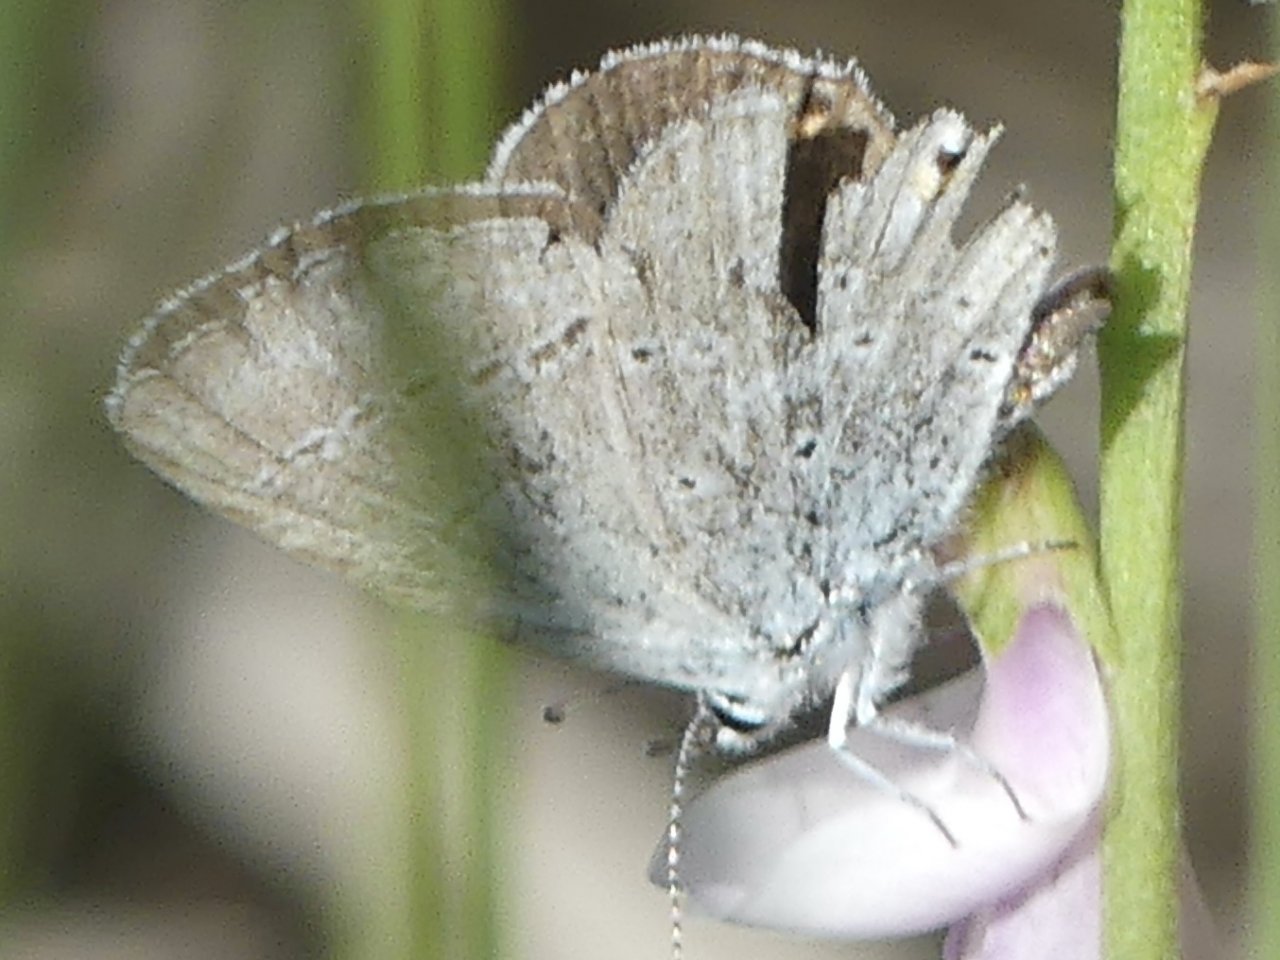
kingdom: Animalia
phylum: Arthropoda
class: Insecta
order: Lepidoptera
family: Lycaenidae
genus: Elkalyce
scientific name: Elkalyce amyntula
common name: Western Tailed-Blue
